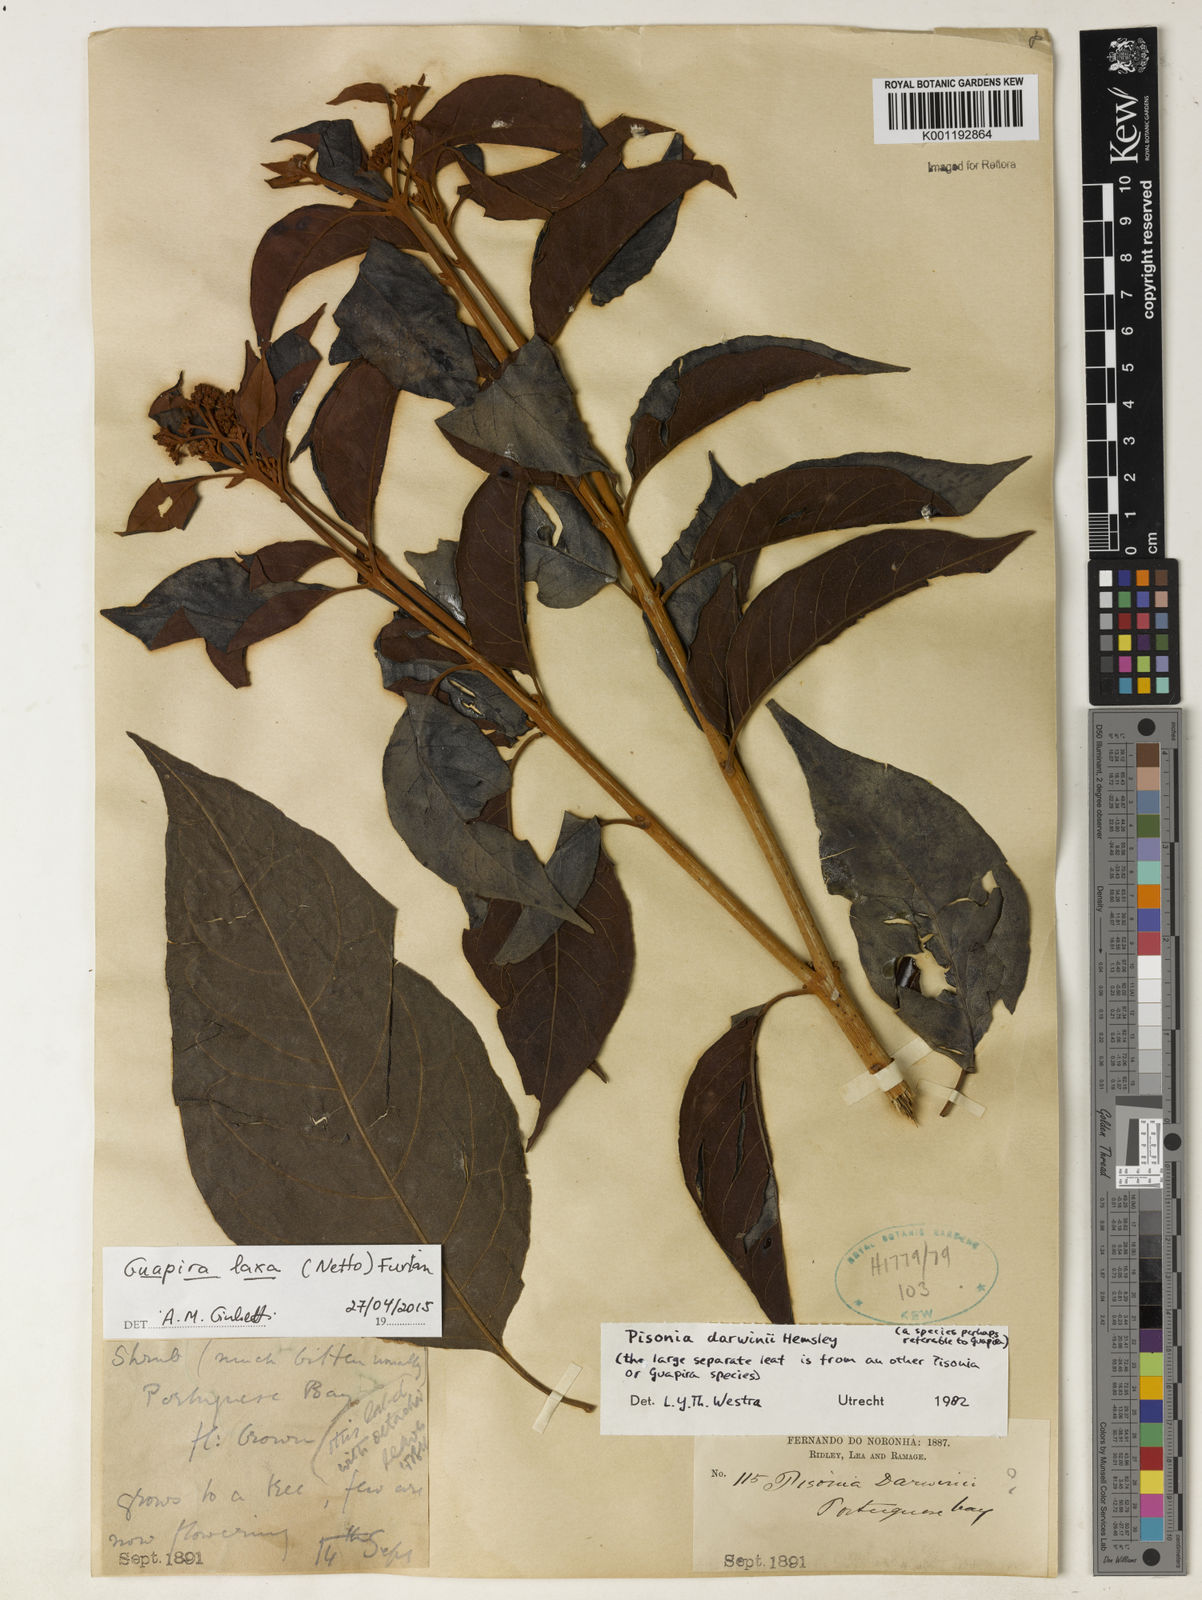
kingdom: Plantae
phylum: Tracheophyta
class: Magnoliopsida
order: Caryophyllales
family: Nyctaginaceae
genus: Guapira
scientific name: Guapira laxa
